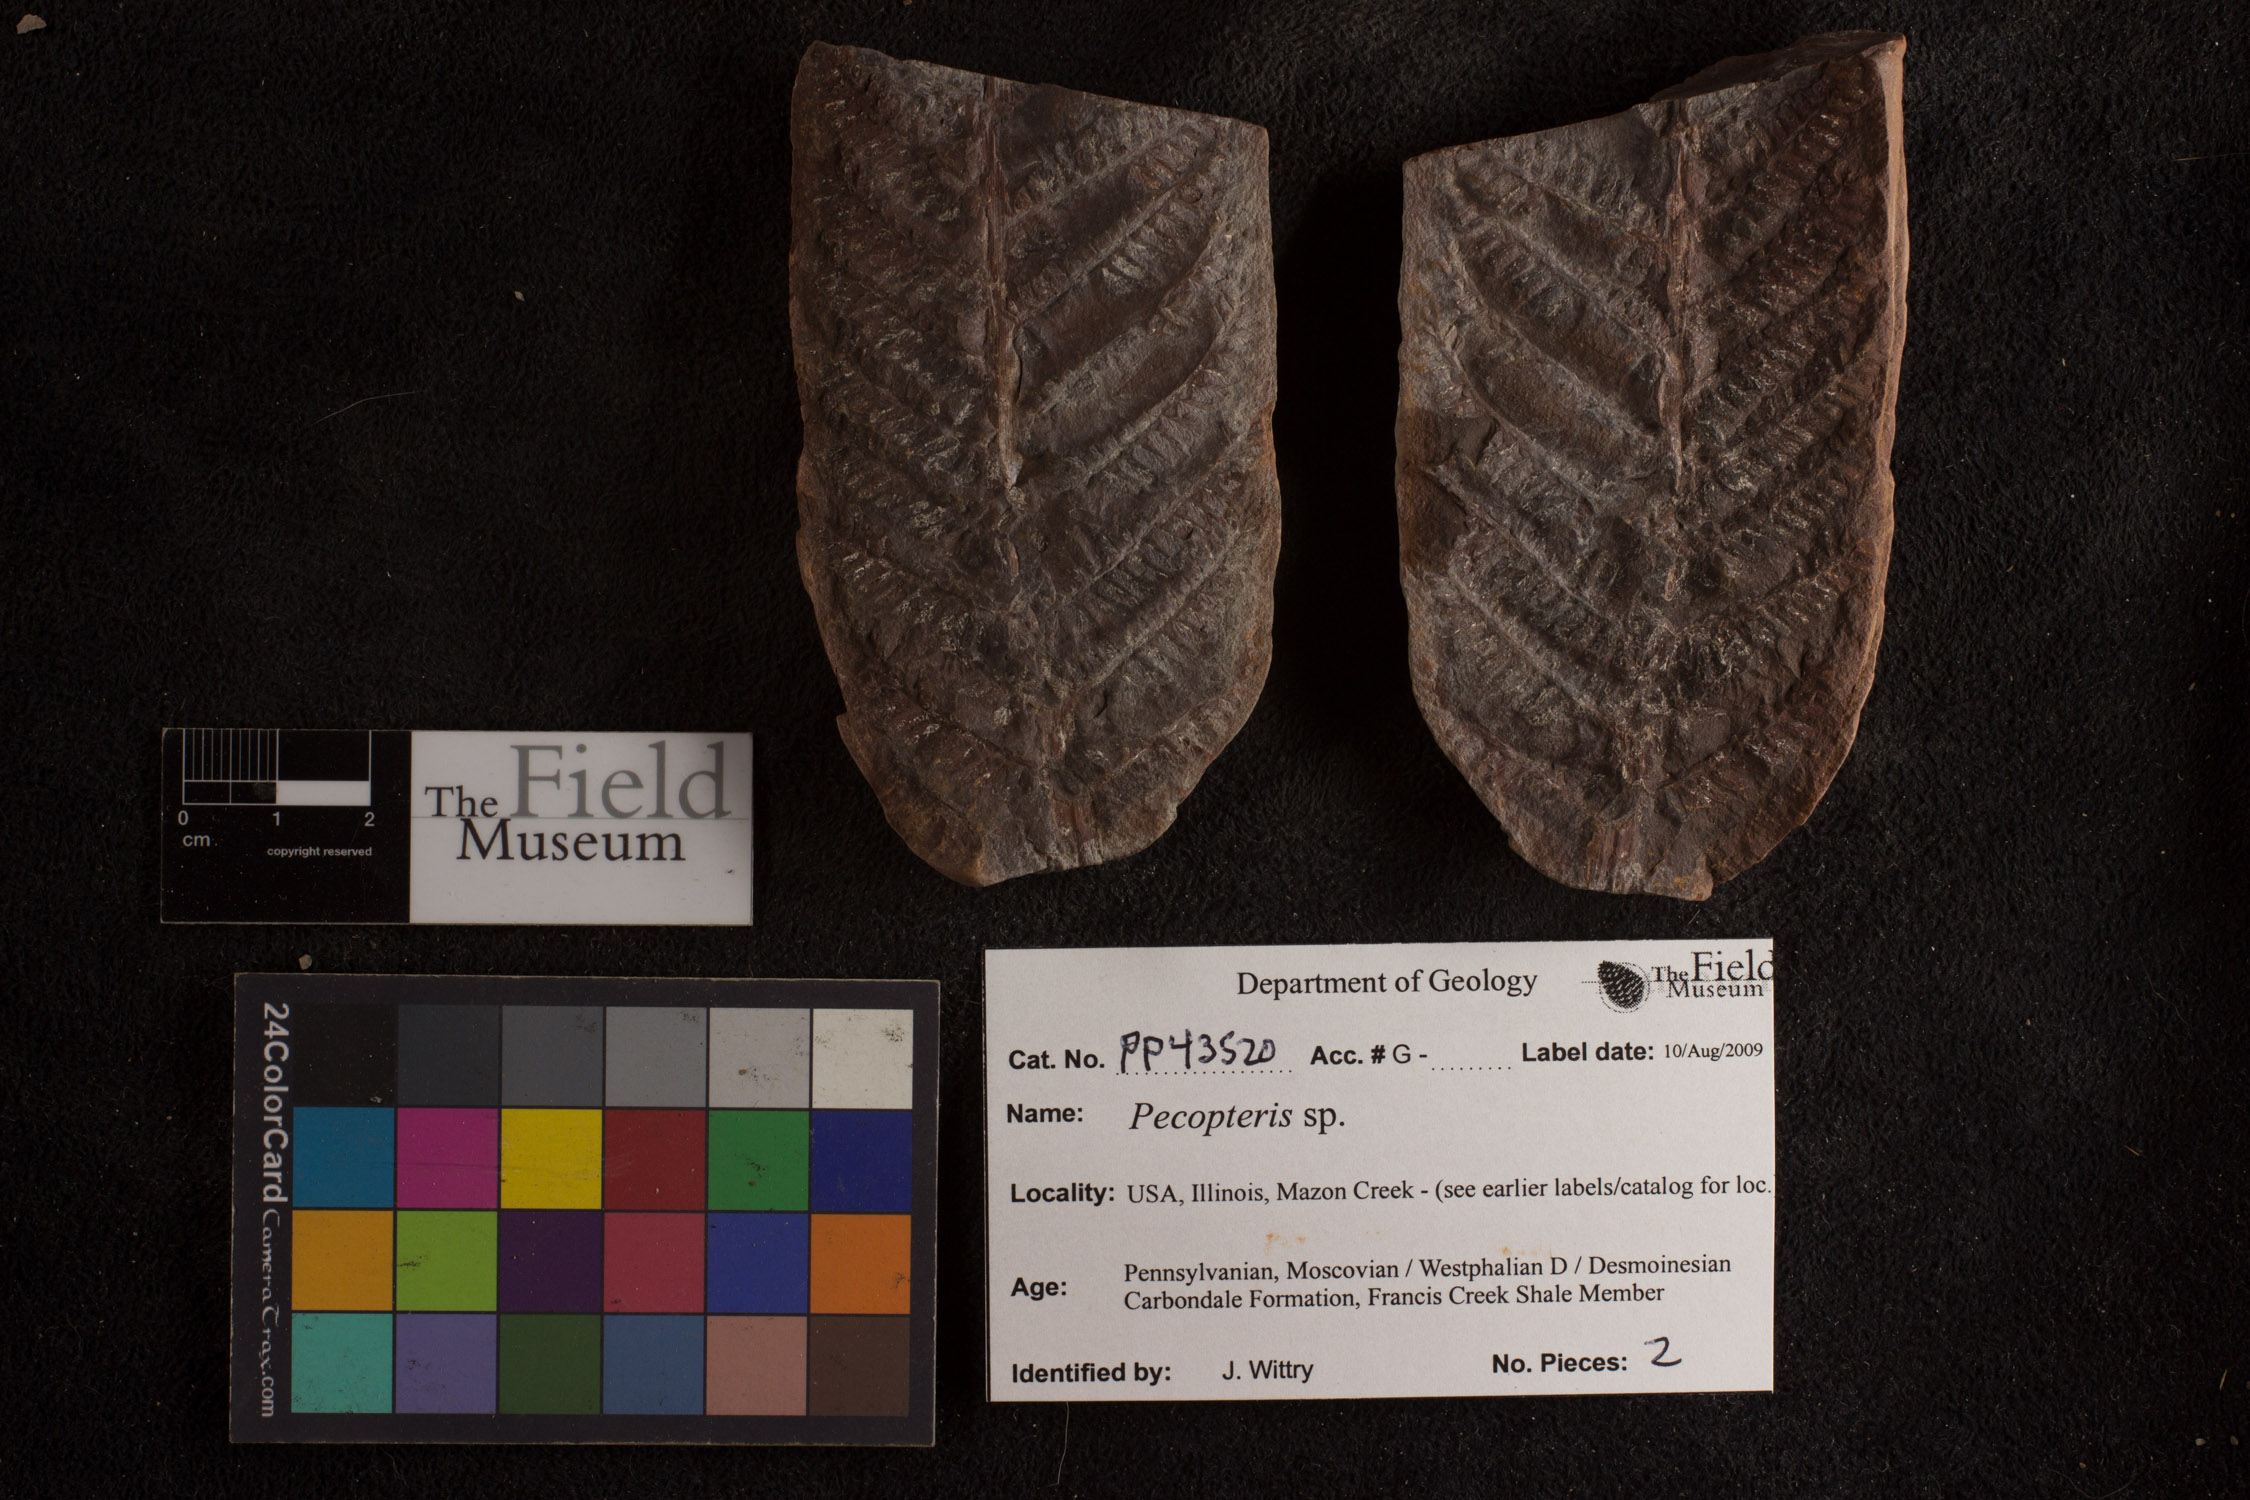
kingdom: Plantae
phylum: Tracheophyta
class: Polypodiopsida
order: Marattiales
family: Asterothecaceae
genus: Pecopteris
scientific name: Pecopteris
